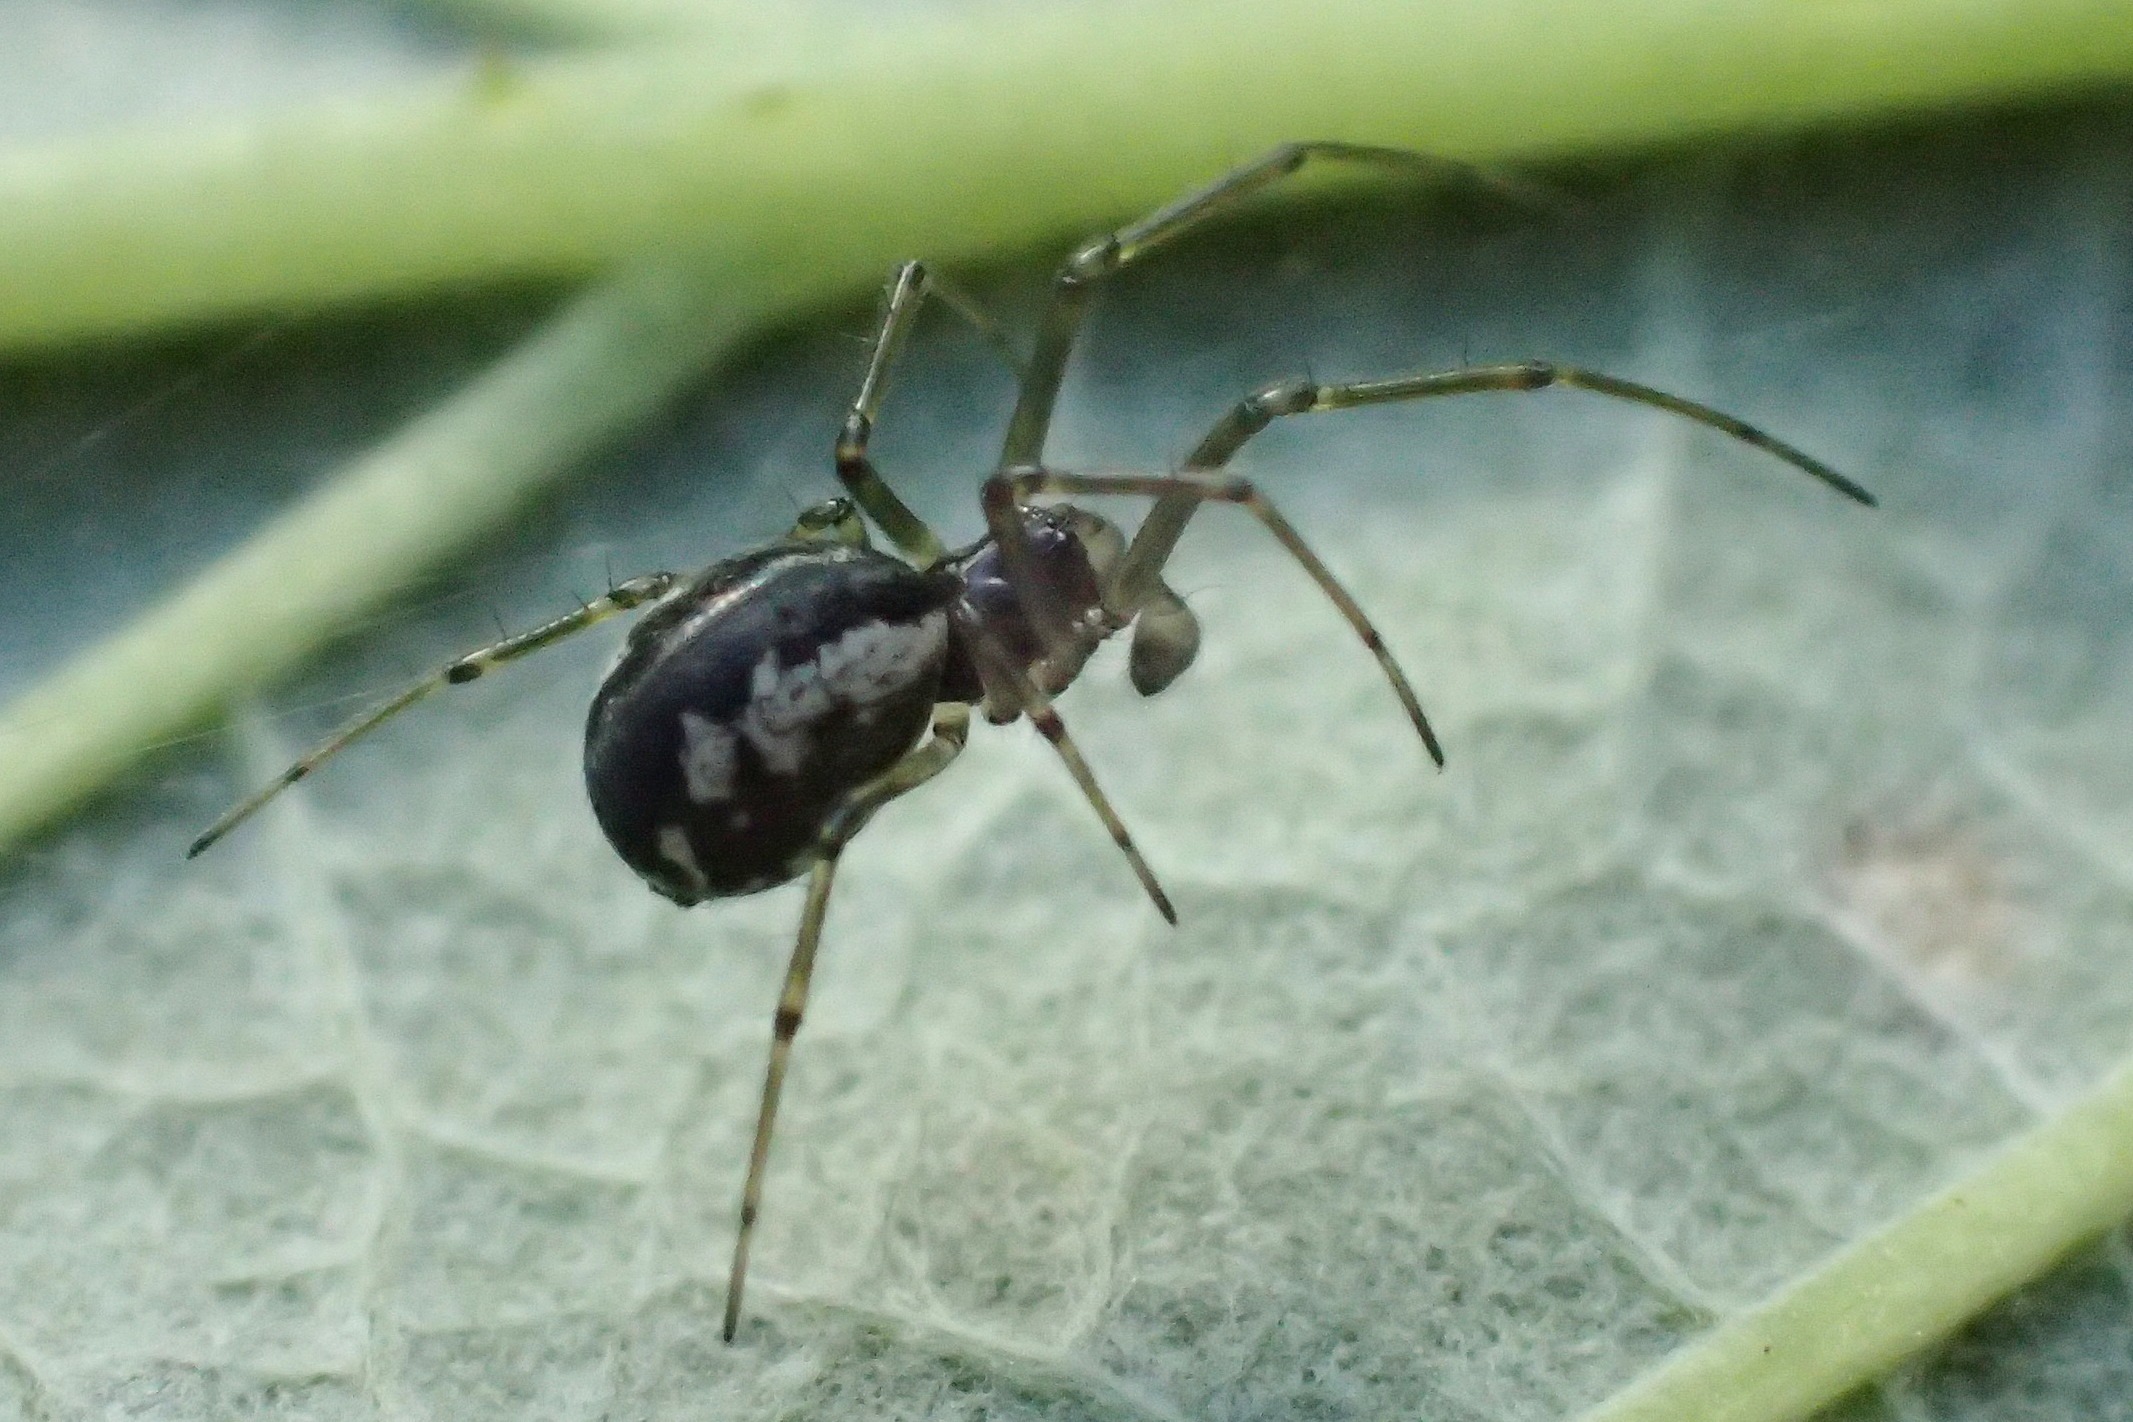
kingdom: Animalia
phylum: Arthropoda
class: Arachnida
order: Araneae
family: Linyphiidae
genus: Linyphia
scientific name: Linyphia hortensis
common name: Skovbaldakinspinder
